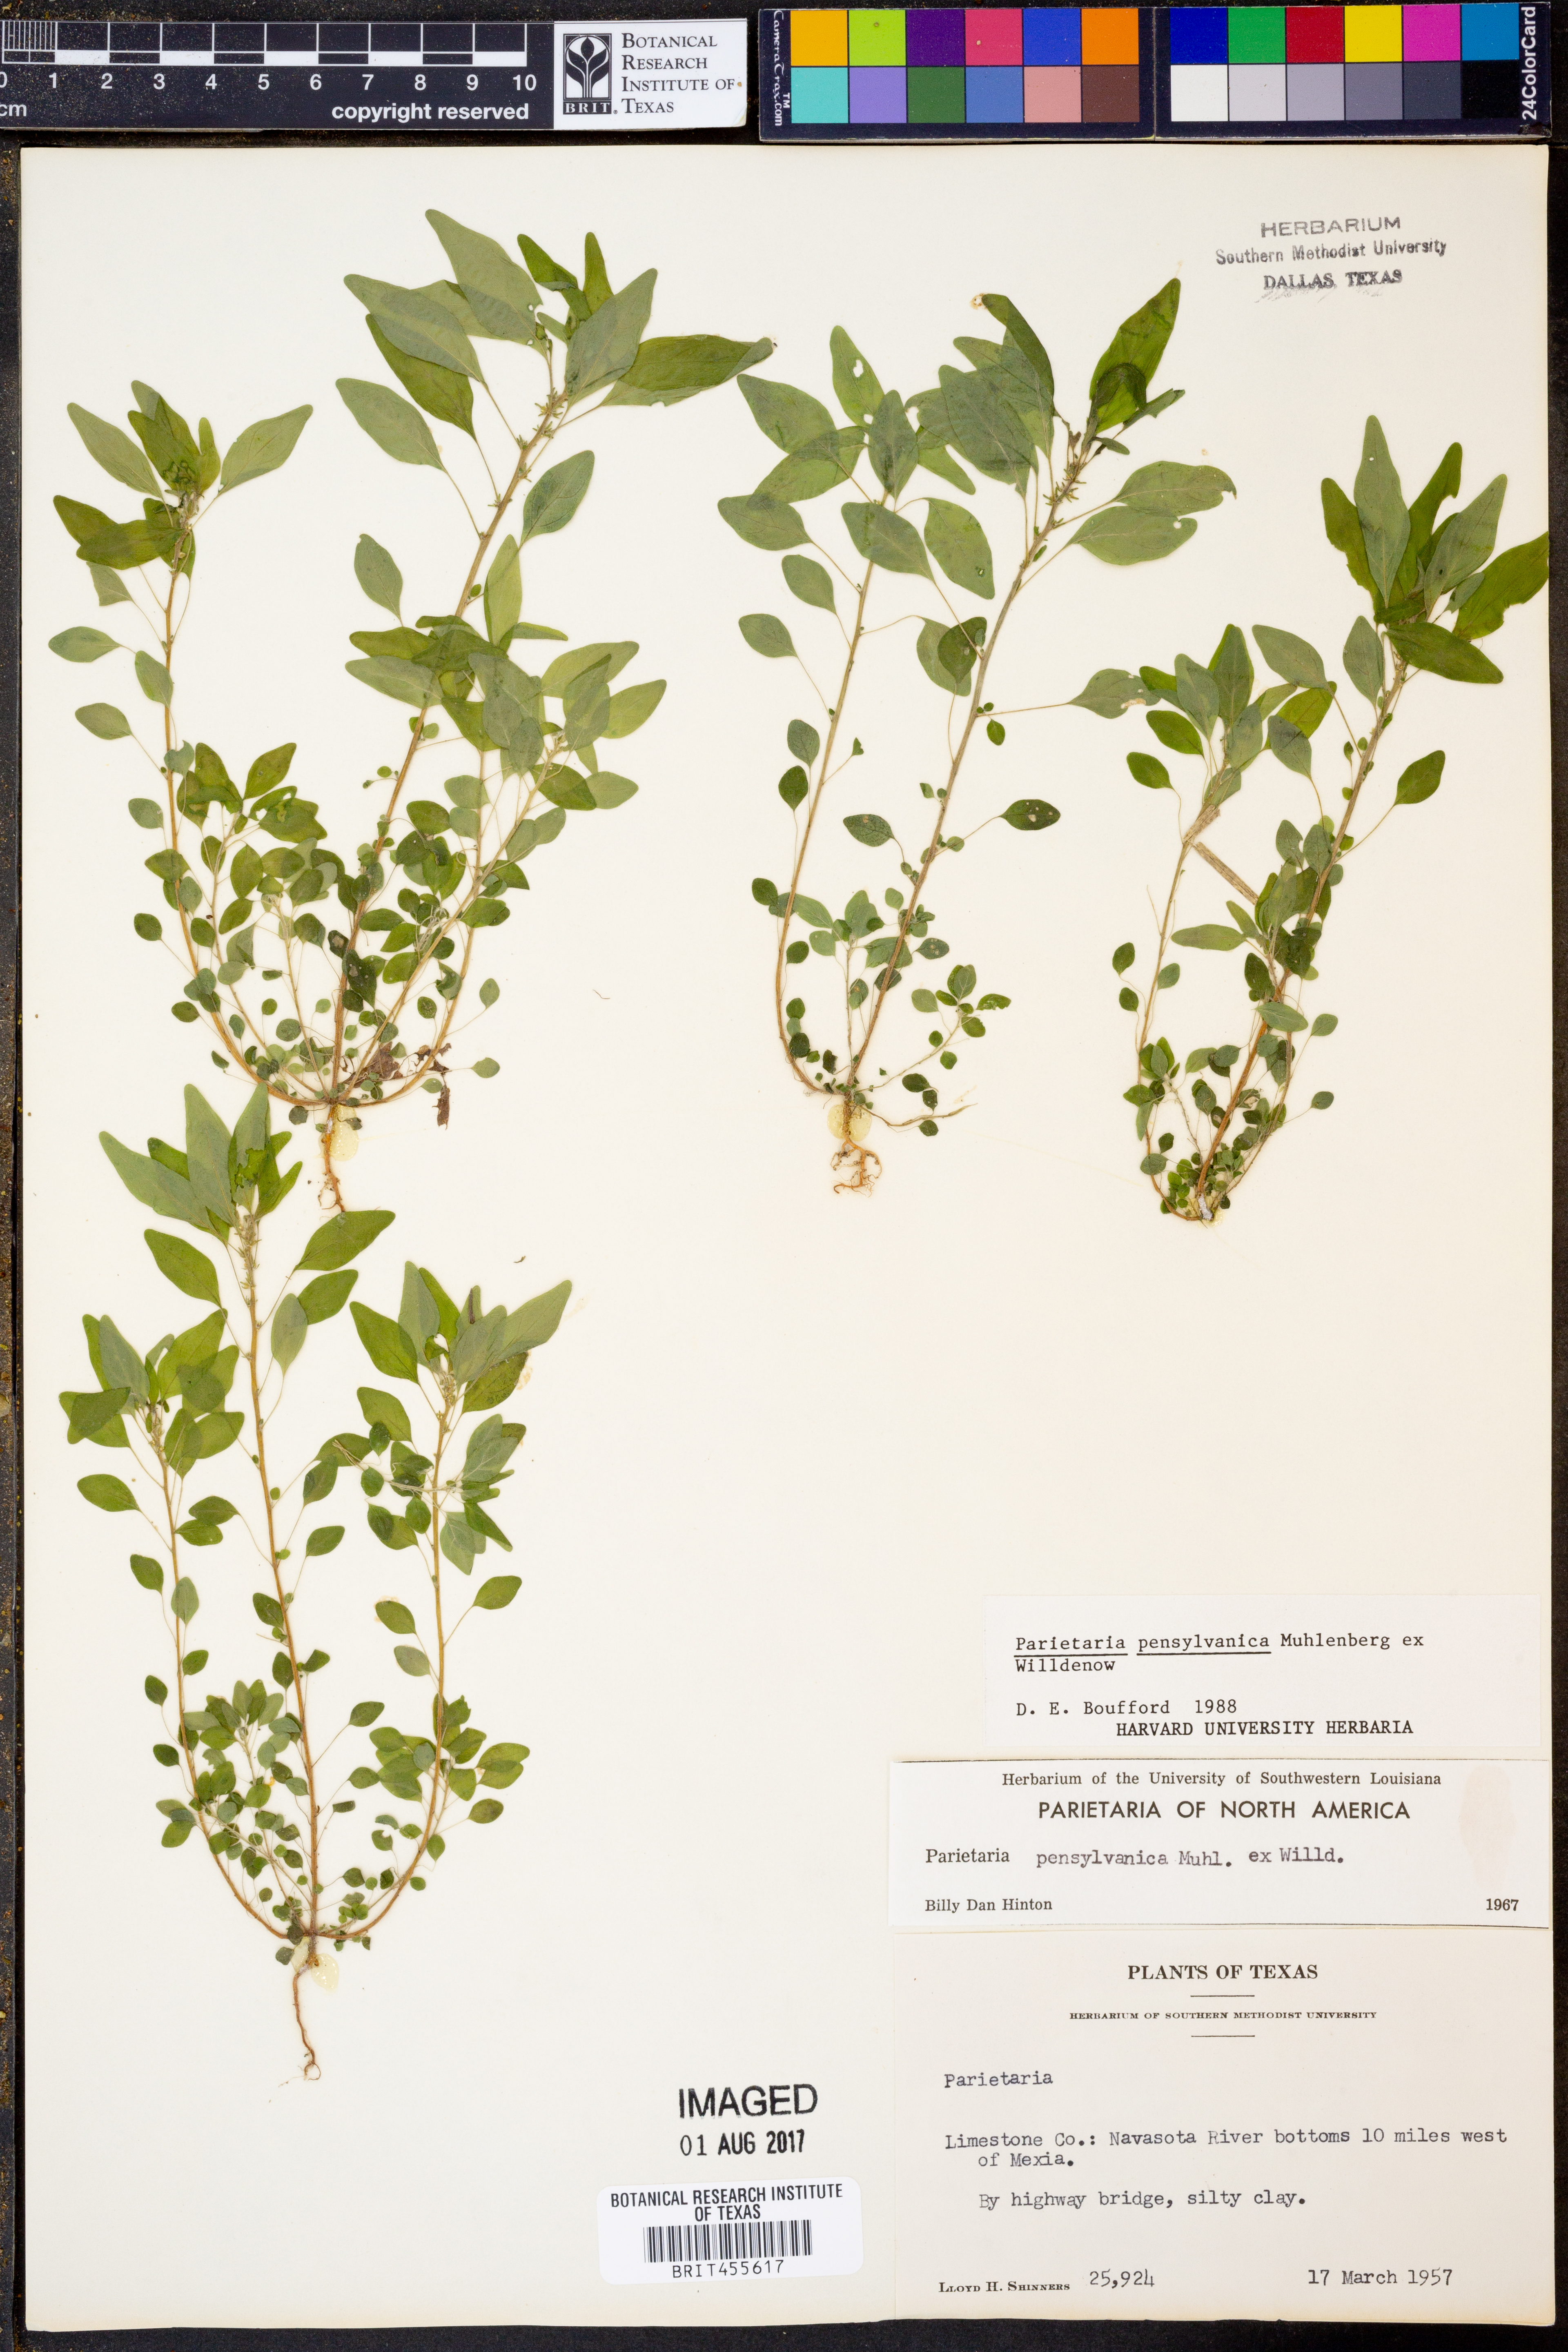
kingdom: Plantae
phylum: Tracheophyta
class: Magnoliopsida
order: Rosales
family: Urticaceae
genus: Parietaria
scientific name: Parietaria pensylvanica
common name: Pennsylvania pellitory
